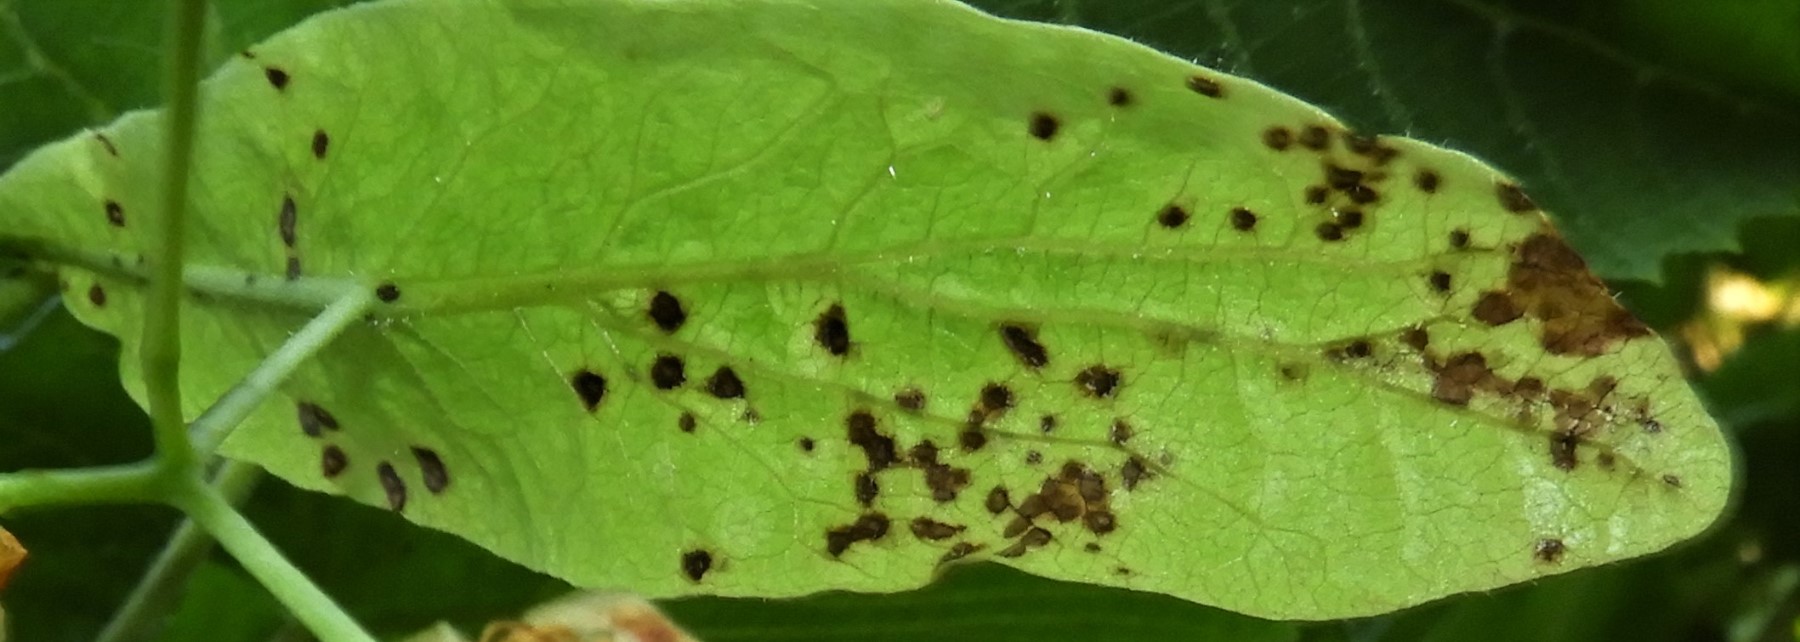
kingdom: Fungi
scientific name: Fungi
